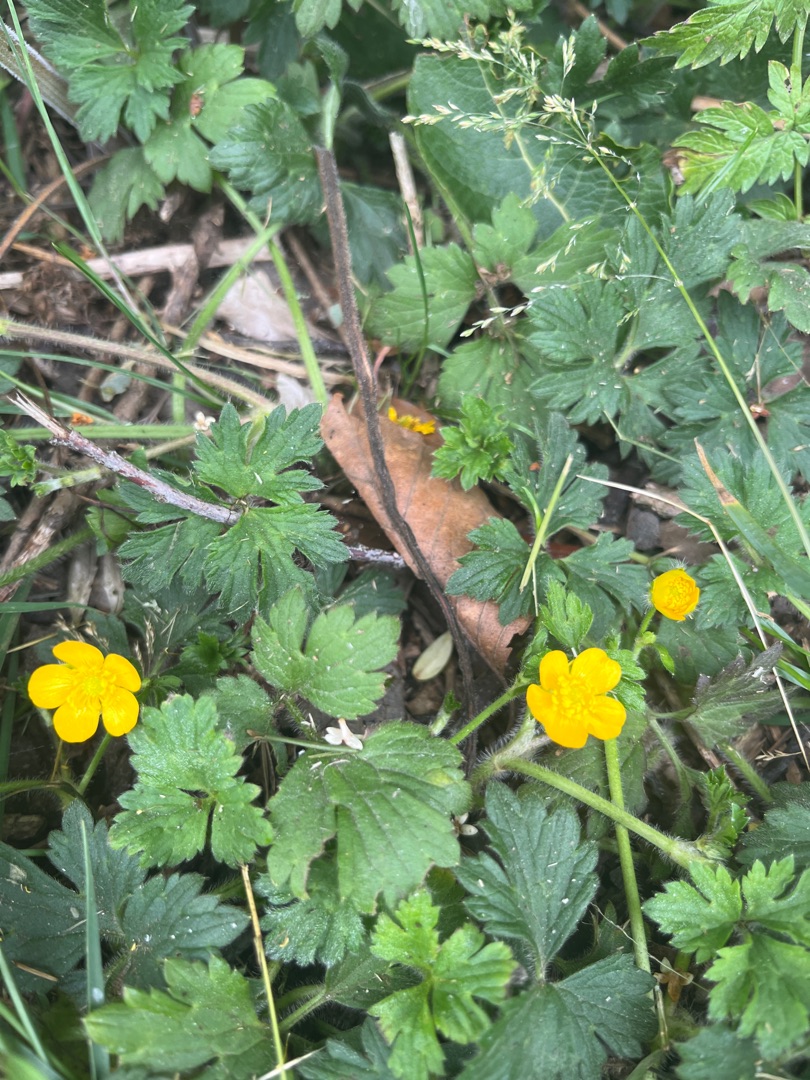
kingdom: Plantae
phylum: Tracheophyta
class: Magnoliopsida
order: Ranunculales
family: Ranunculaceae
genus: Ranunculus
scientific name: Ranunculus repens
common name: Lav ranunkel
